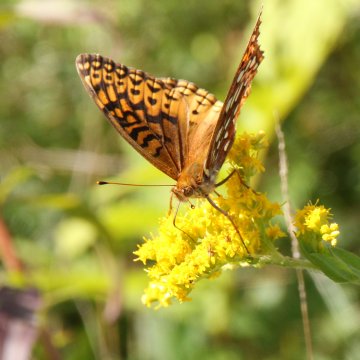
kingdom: Animalia
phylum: Arthropoda
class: Insecta
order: Lepidoptera
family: Nymphalidae
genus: Speyeria
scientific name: Speyeria aphrodite
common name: Aphrodite Fritillary
